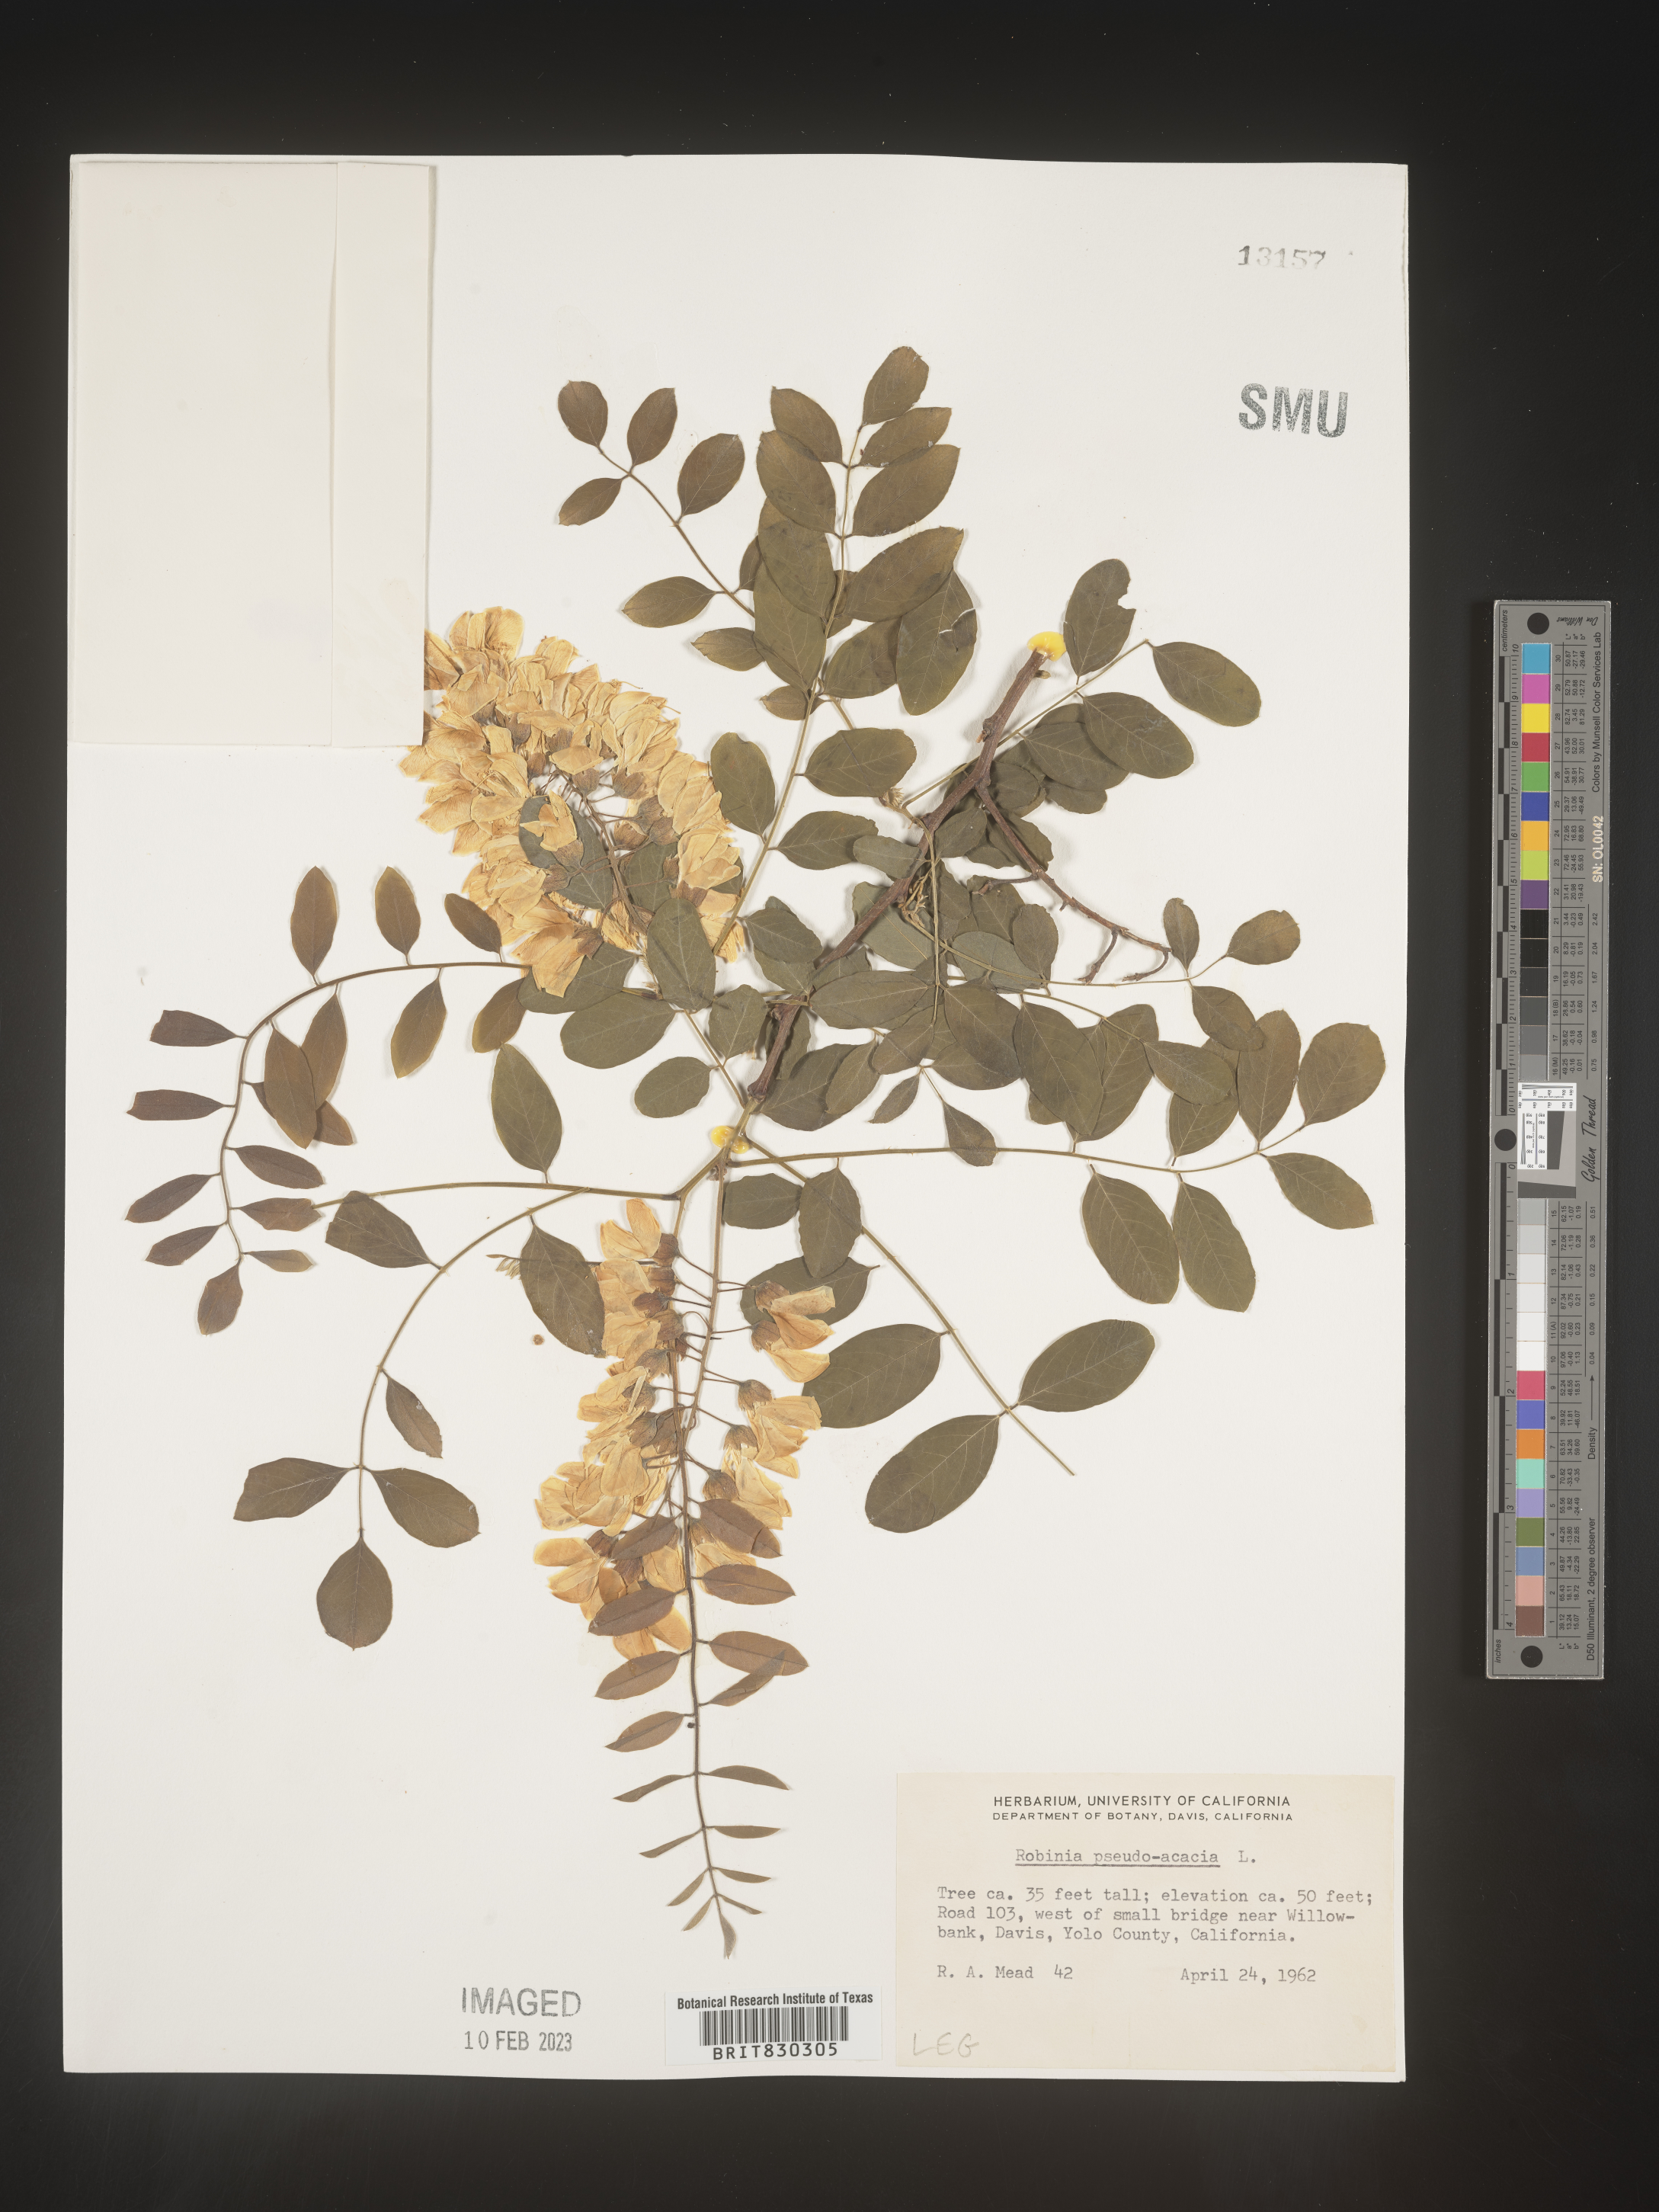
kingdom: Plantae
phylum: Tracheophyta
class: Magnoliopsida
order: Fabales
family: Fabaceae
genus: Robinia
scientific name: Robinia pseudoacacia
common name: Black locust
